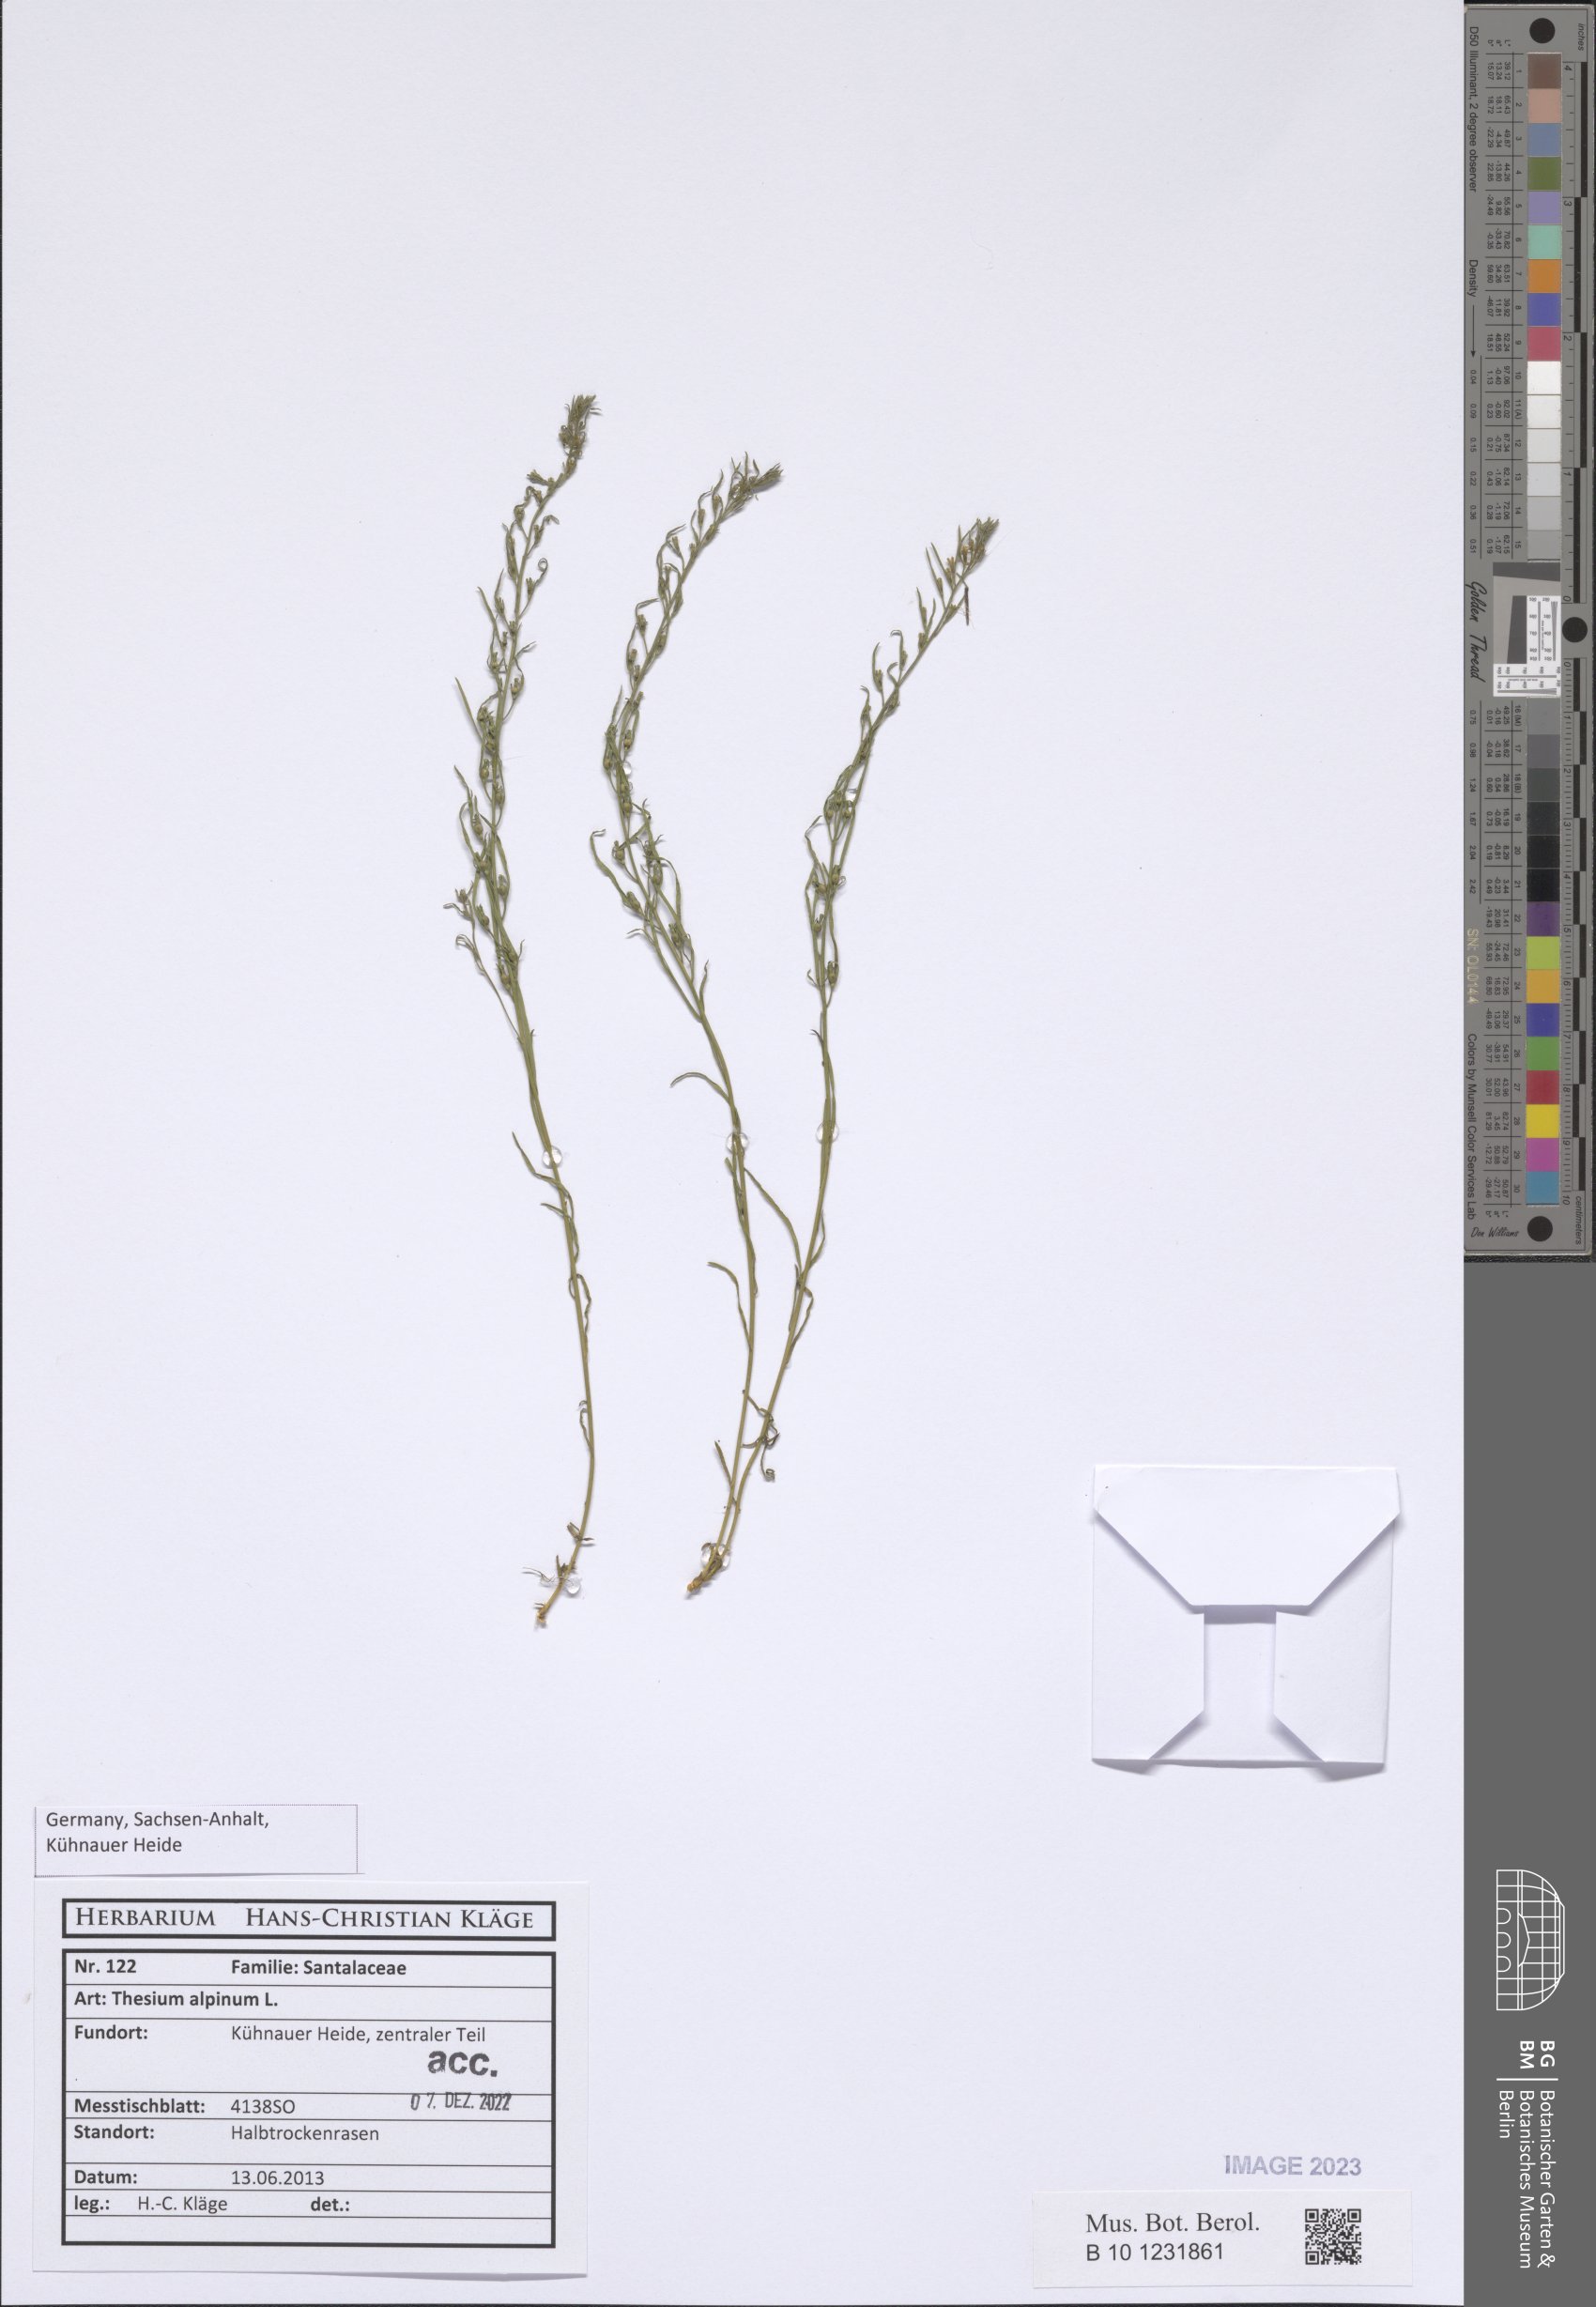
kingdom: Plantae
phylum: Tracheophyta
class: Magnoliopsida
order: Santalales
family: Thesiaceae
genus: Thesium
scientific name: Thesium alpinum
